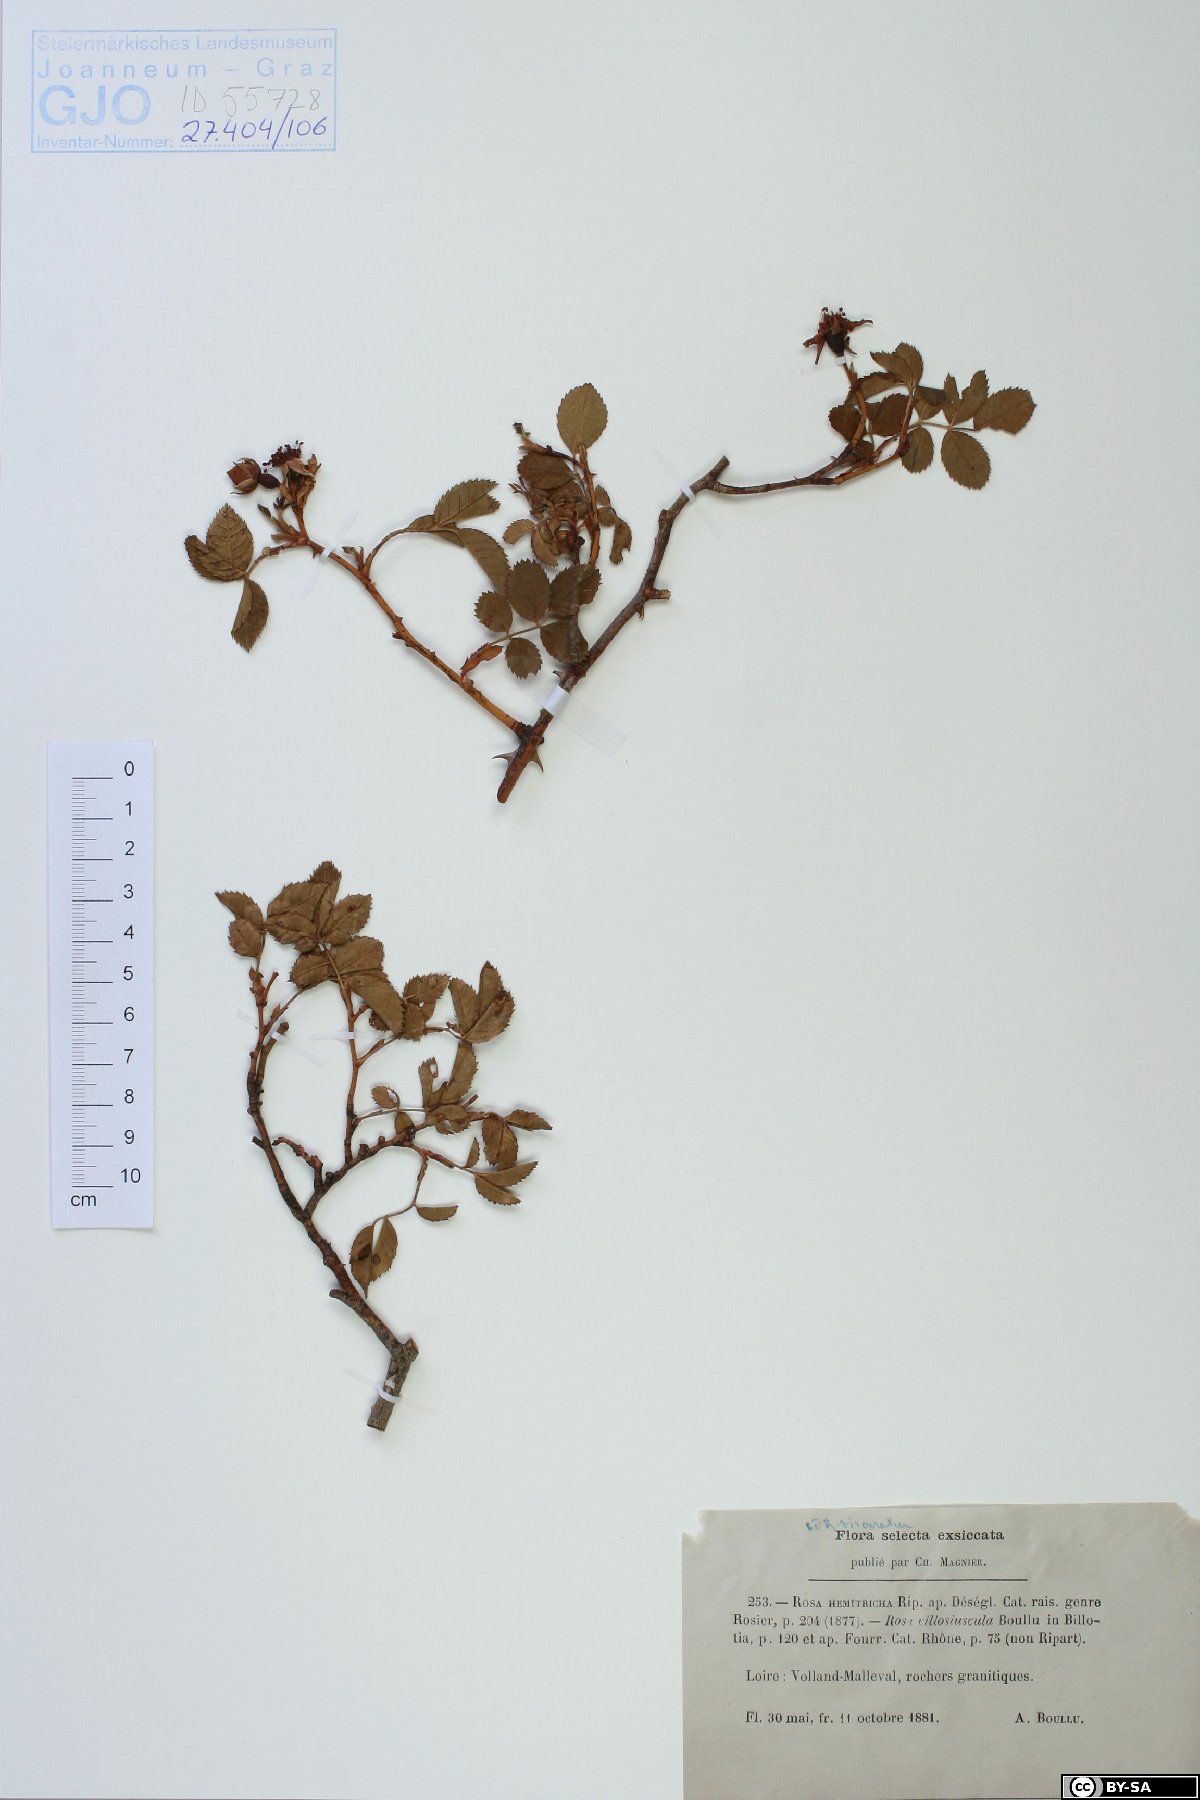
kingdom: Plantae
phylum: Tracheophyta
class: Magnoliopsida
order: Rosales
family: Rosaceae
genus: Rosa
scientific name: Rosa corymbifera
